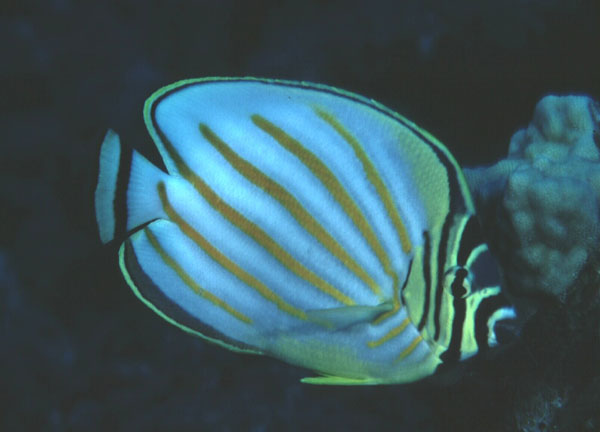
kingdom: Animalia
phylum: Chordata
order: Perciformes
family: Chaetodontidae
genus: Chaetodon
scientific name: Chaetodon ornatissimus
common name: Ornate butterflyfish
